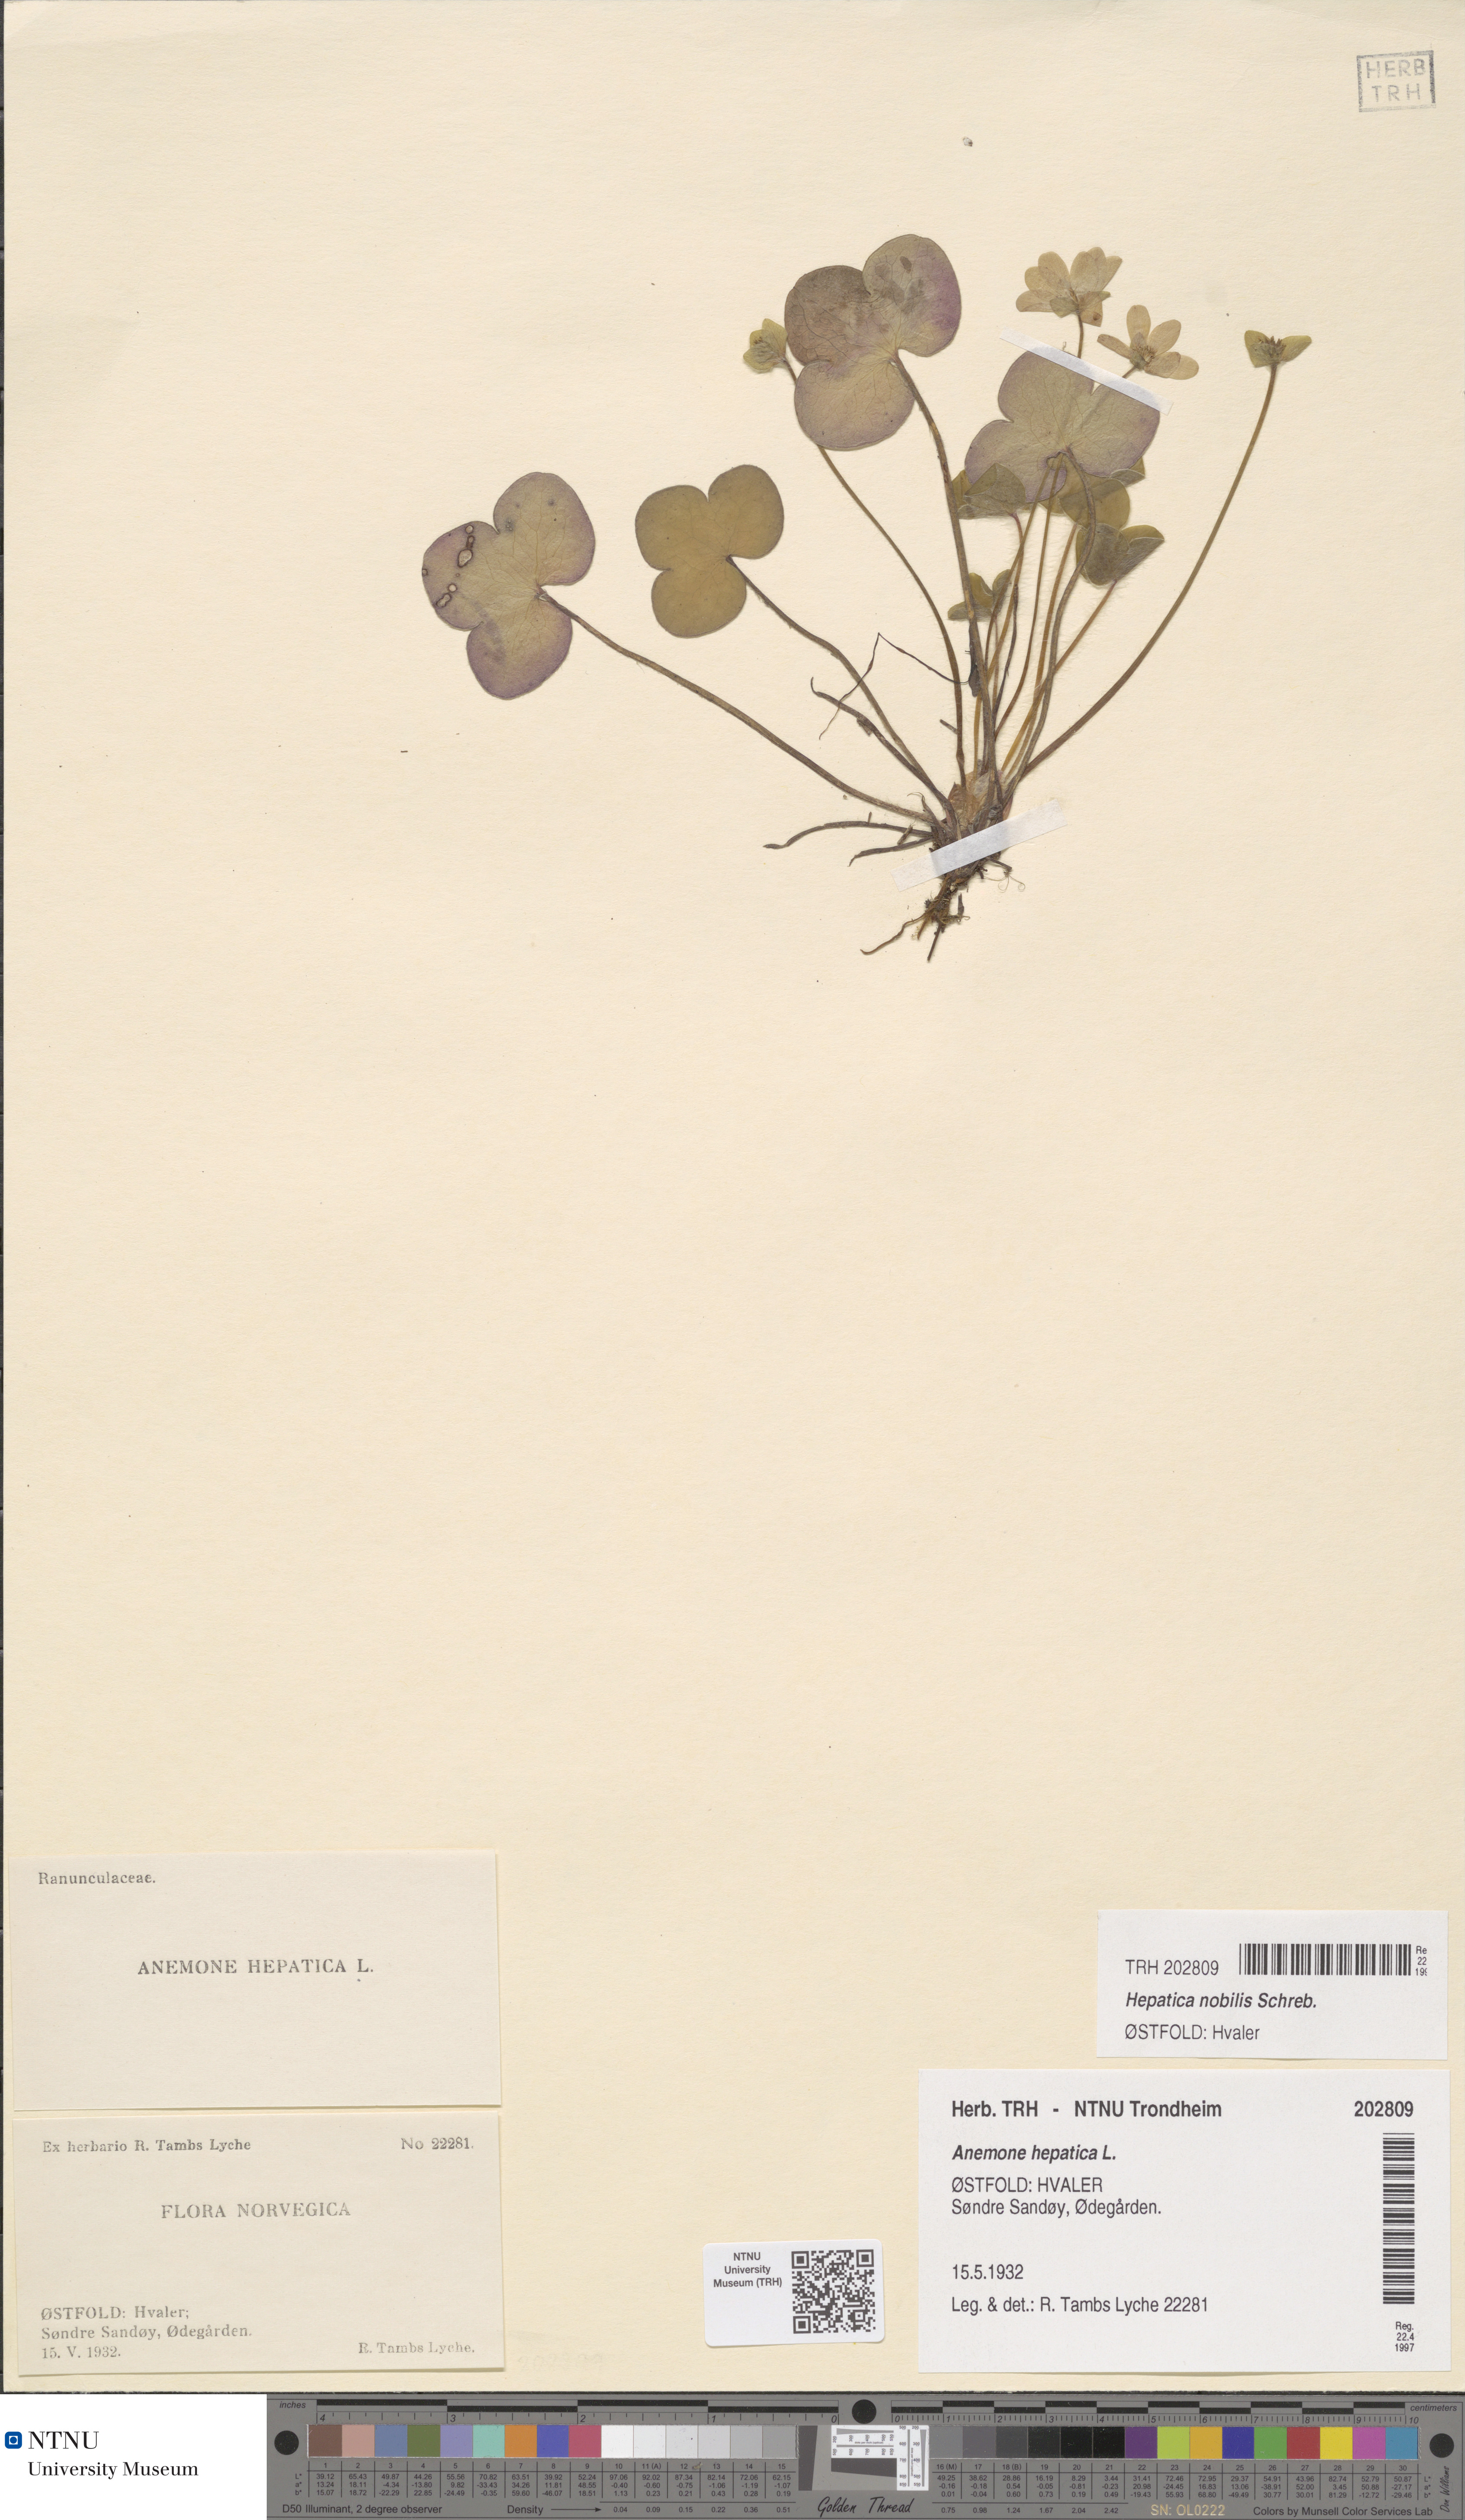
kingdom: Plantae
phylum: Tracheophyta
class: Magnoliopsida
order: Ranunculales
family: Ranunculaceae
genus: Hepatica
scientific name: Hepatica nobilis
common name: Liverleaf
